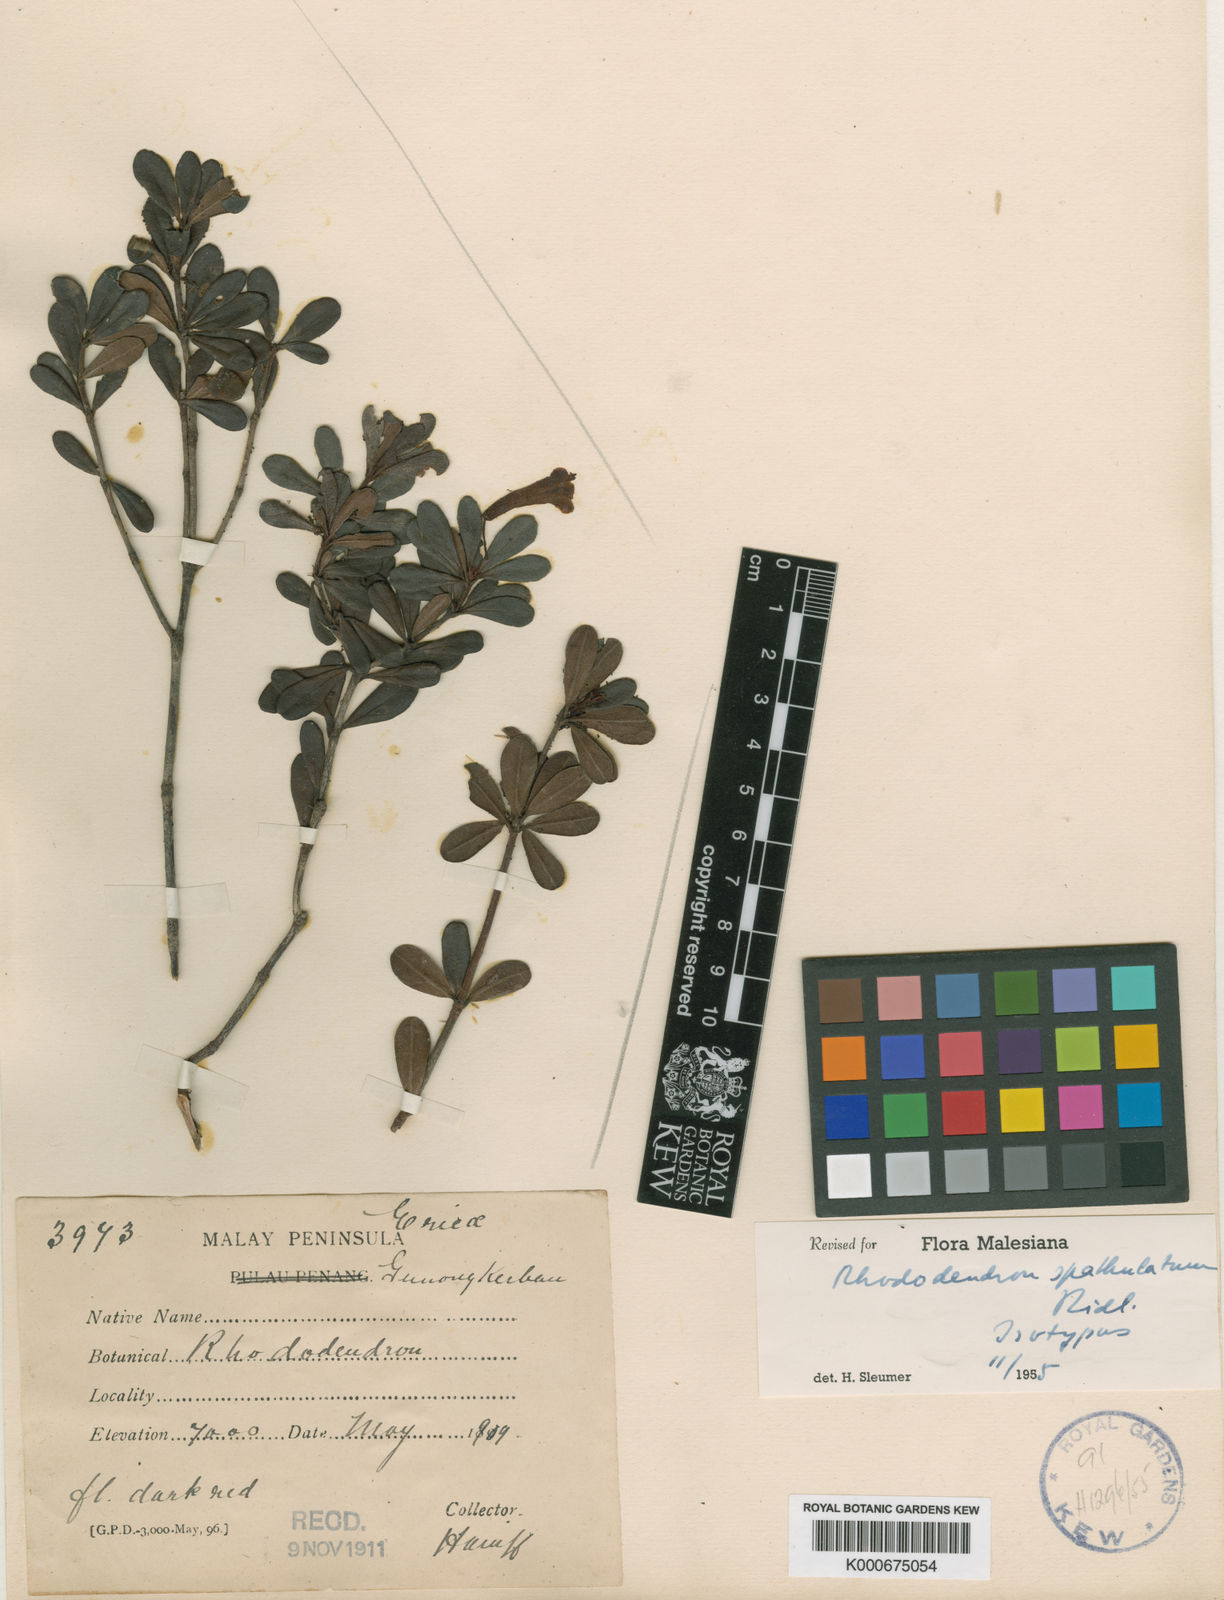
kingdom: Plantae
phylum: Tracheophyta
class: Magnoliopsida
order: Ericales
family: Ericaceae
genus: Rhododendron
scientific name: Rhododendron spathulatum
